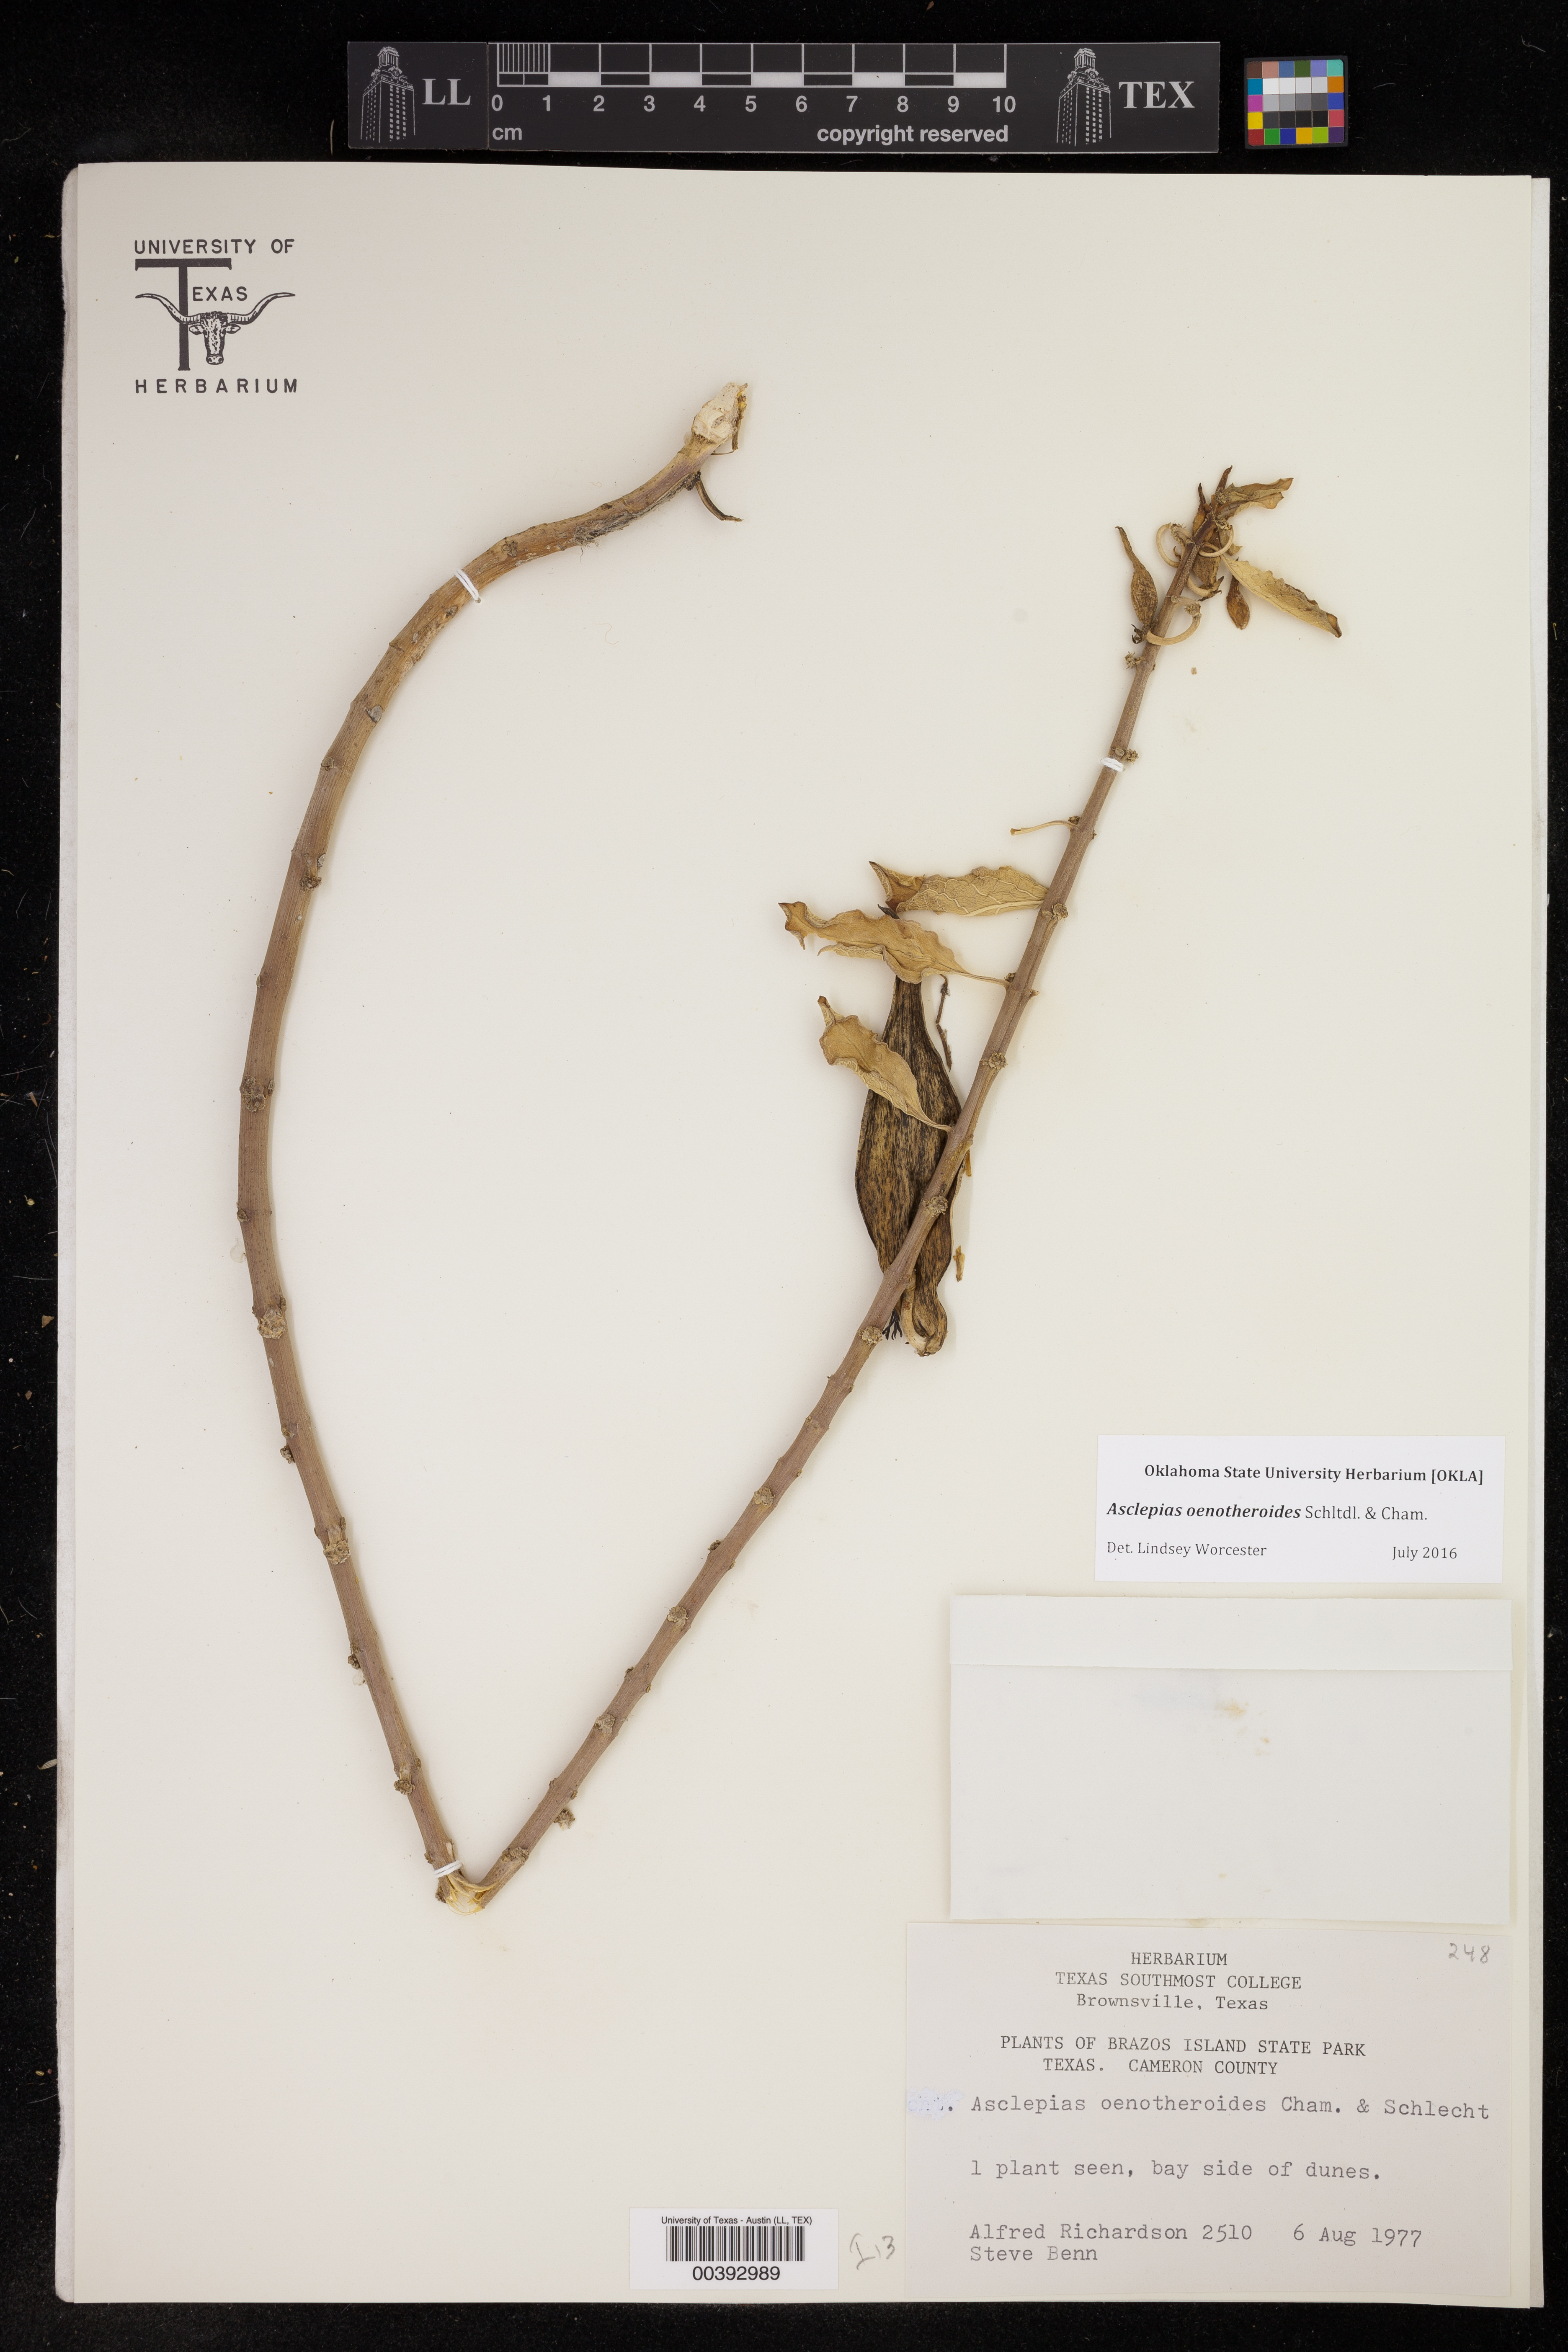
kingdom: Plantae
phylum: Tracheophyta
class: Magnoliopsida
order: Gentianales
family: Apocynaceae
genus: Asclepias
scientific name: Asclepias oenotheroides
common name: Zizotes milkweed
